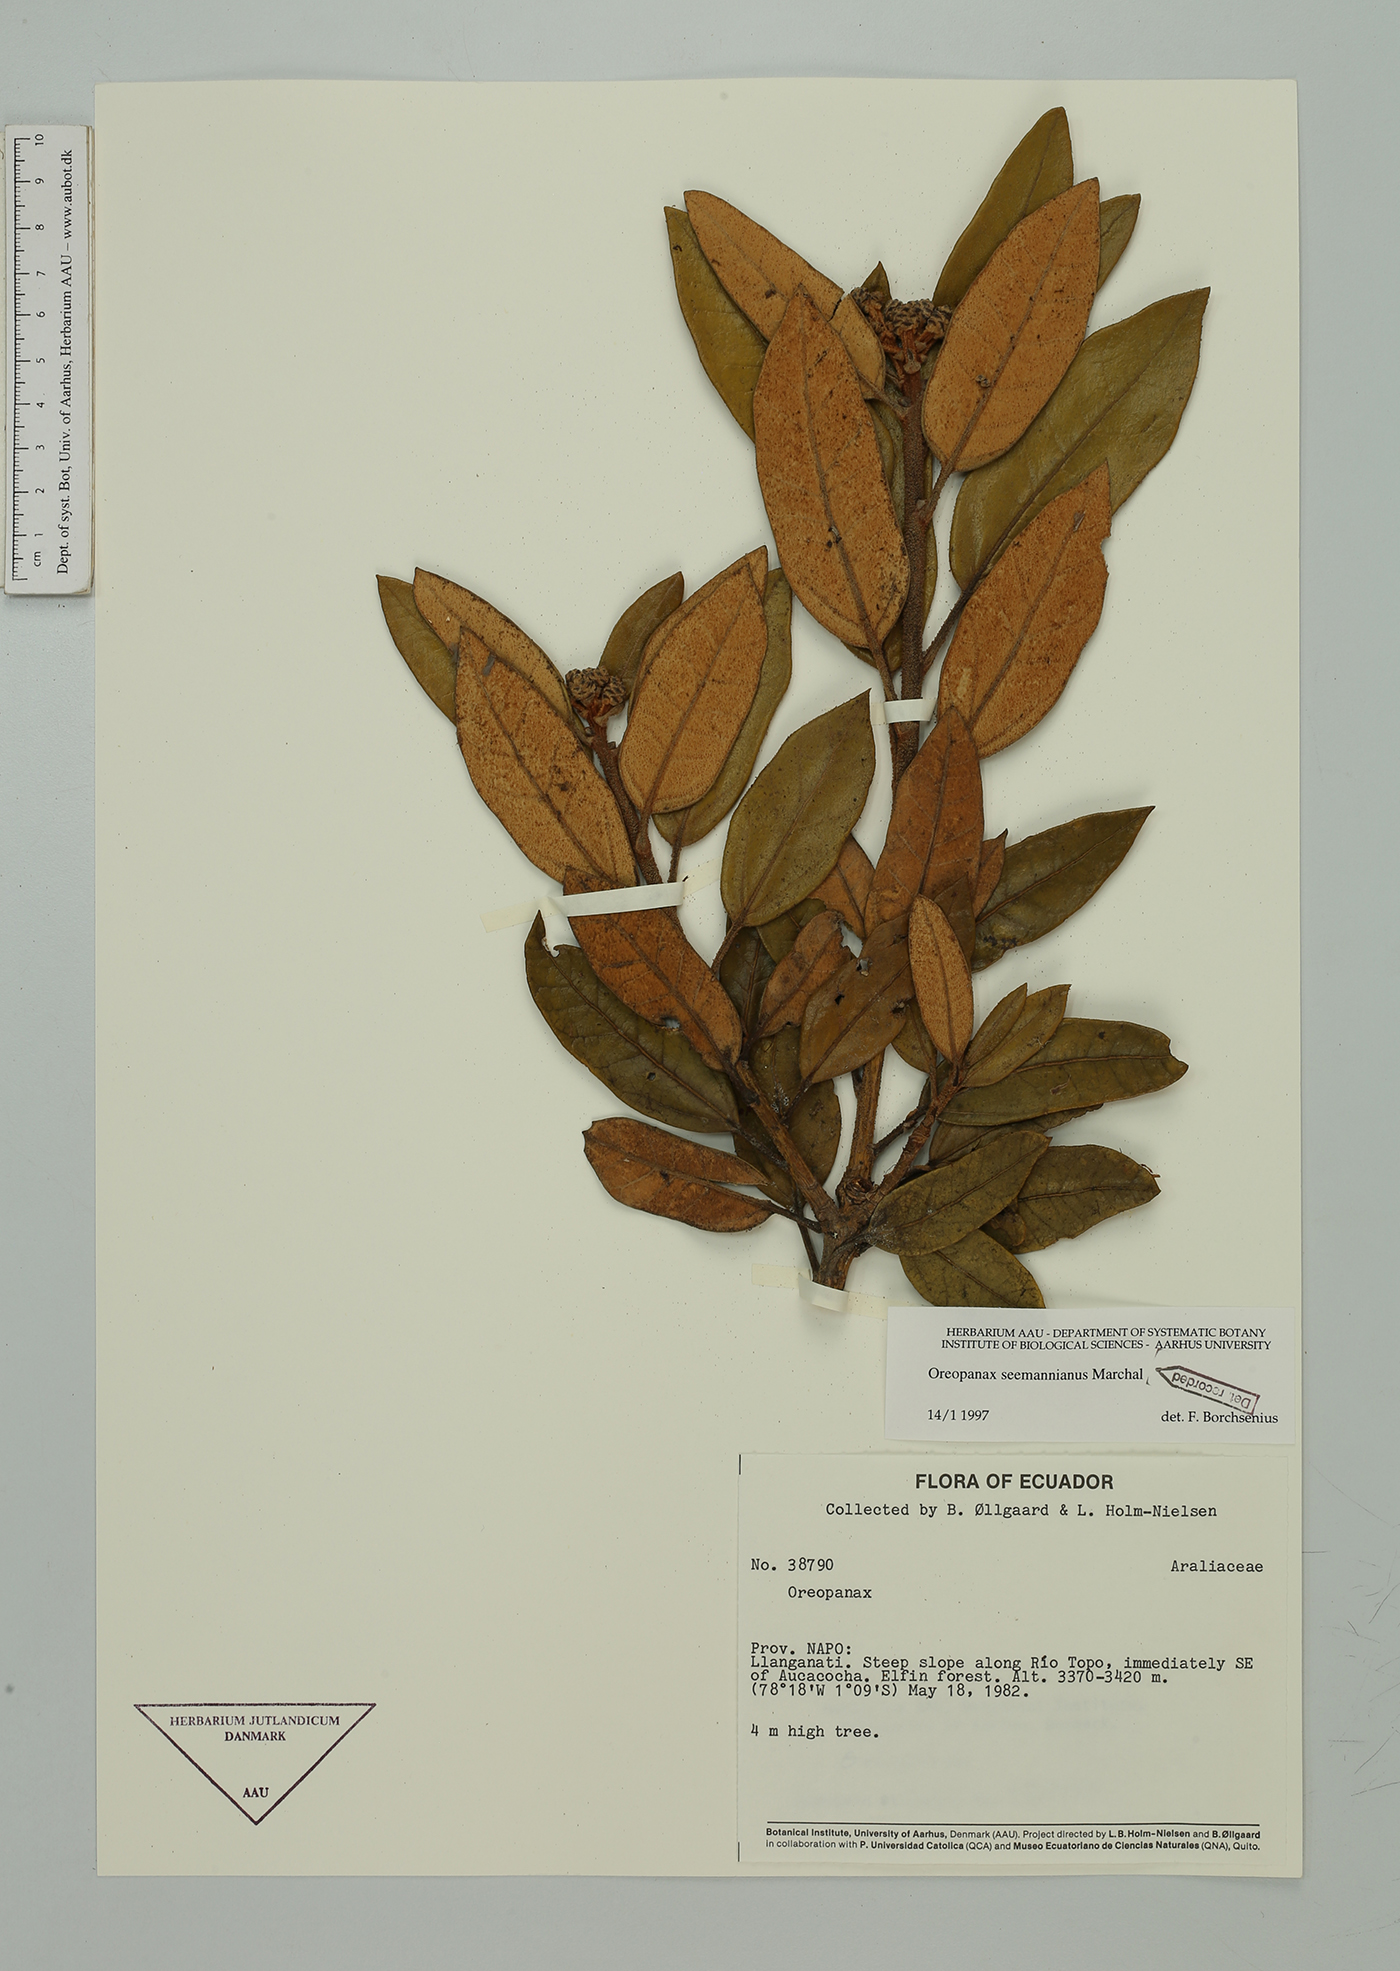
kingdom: Plantae
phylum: Tracheophyta
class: Magnoliopsida
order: Apiales
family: Araliaceae
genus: Oreopanax
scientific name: Oreopanax seemannianus
